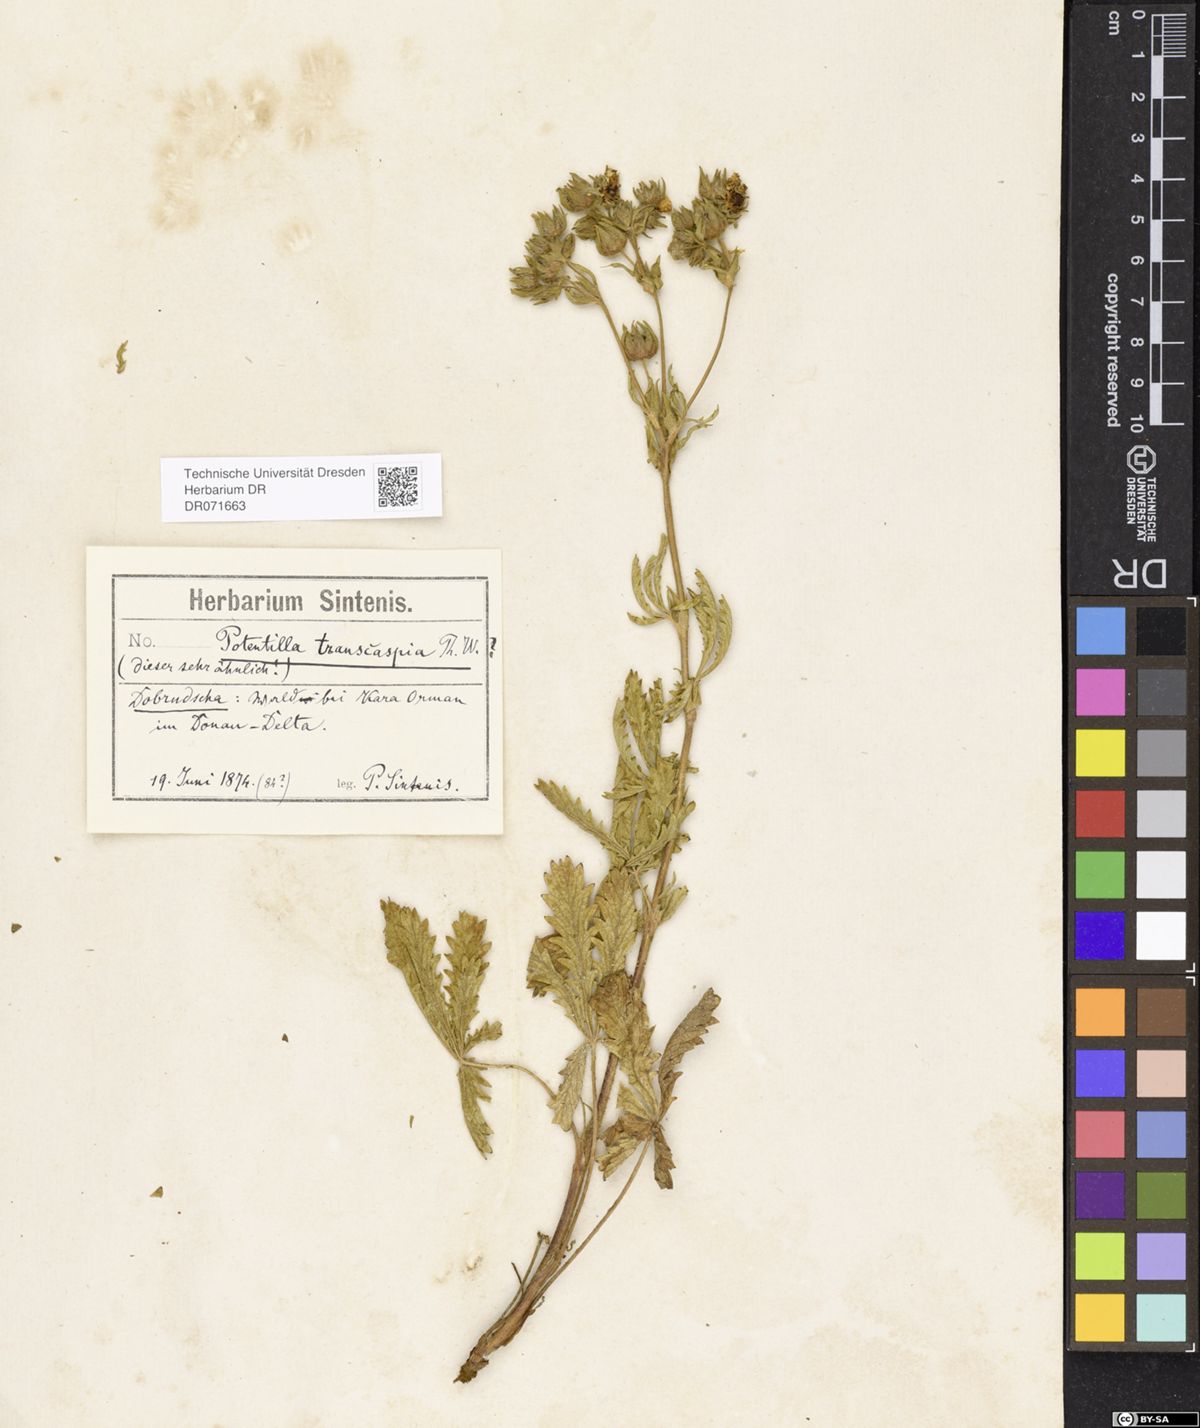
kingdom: Plantae
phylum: Tracheophyta
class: Magnoliopsida
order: Rosales
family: Rosaceae
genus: Potentilla
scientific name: Potentilla pedata
